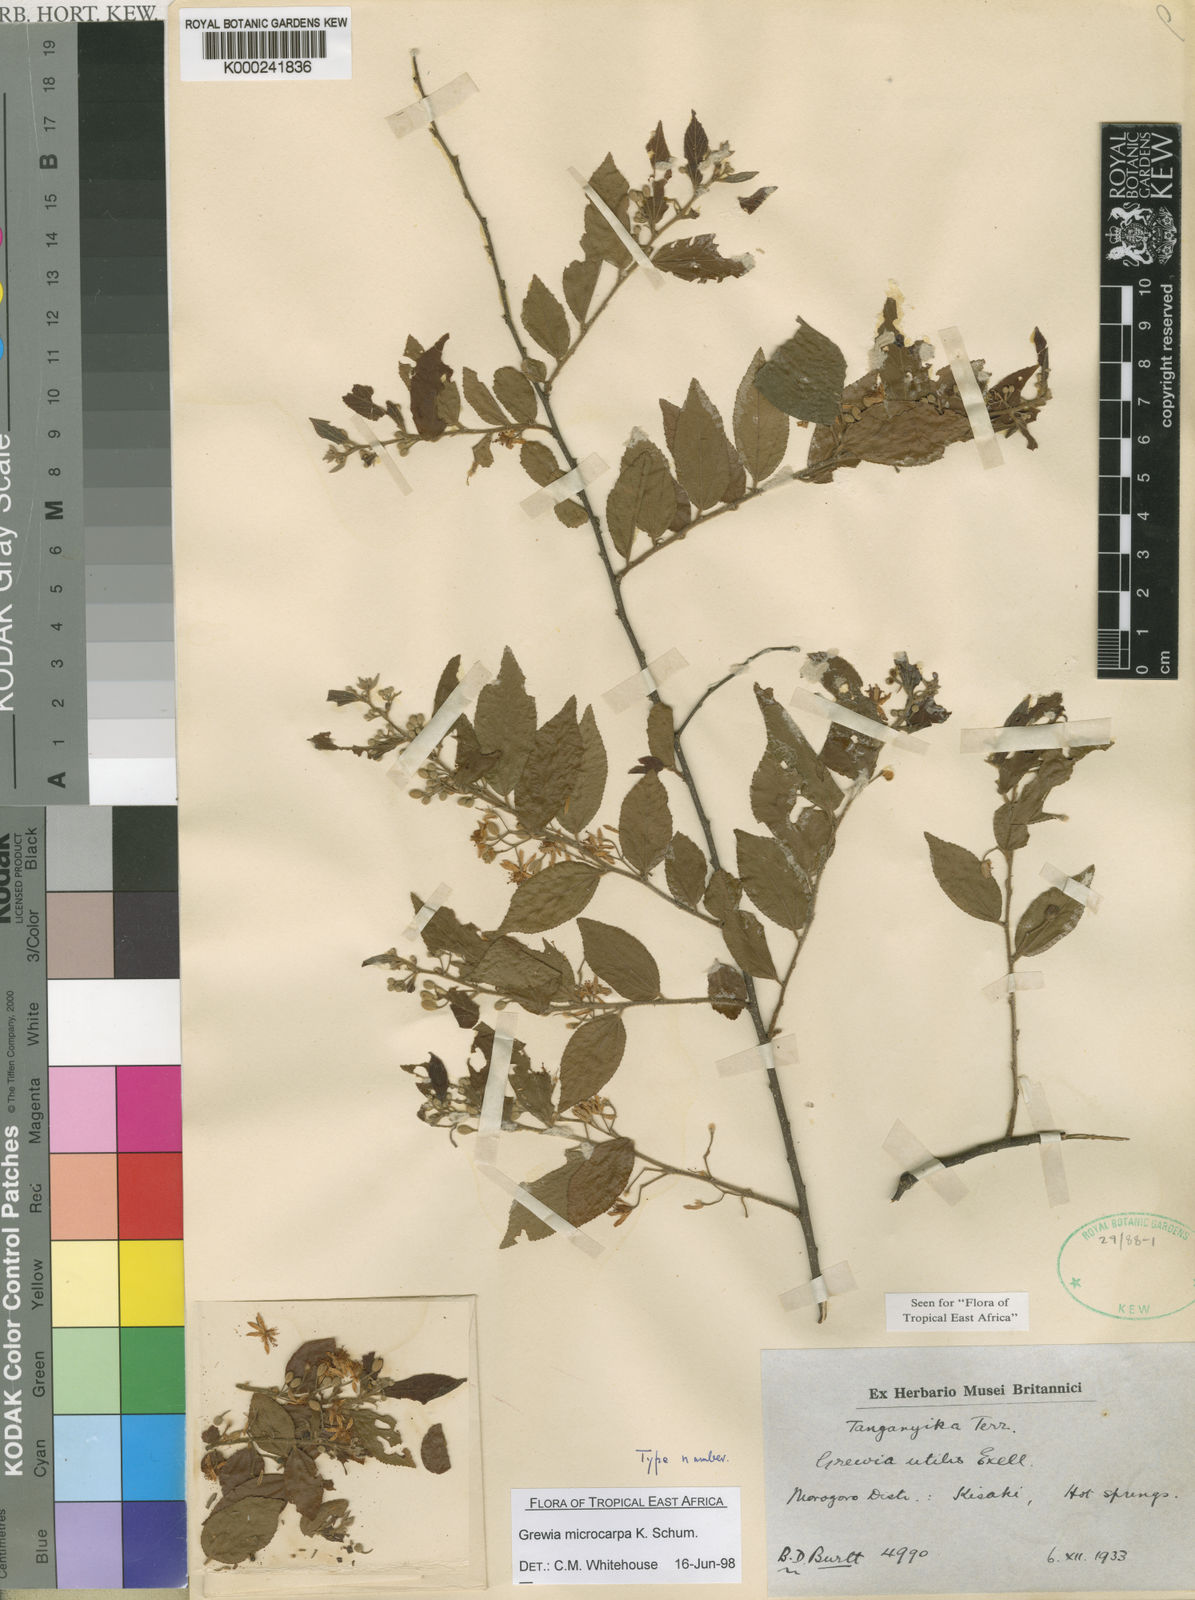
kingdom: Plantae
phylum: Tracheophyta
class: Magnoliopsida
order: Malvales
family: Malvaceae
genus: Grewia
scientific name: Grewia microcarpa
